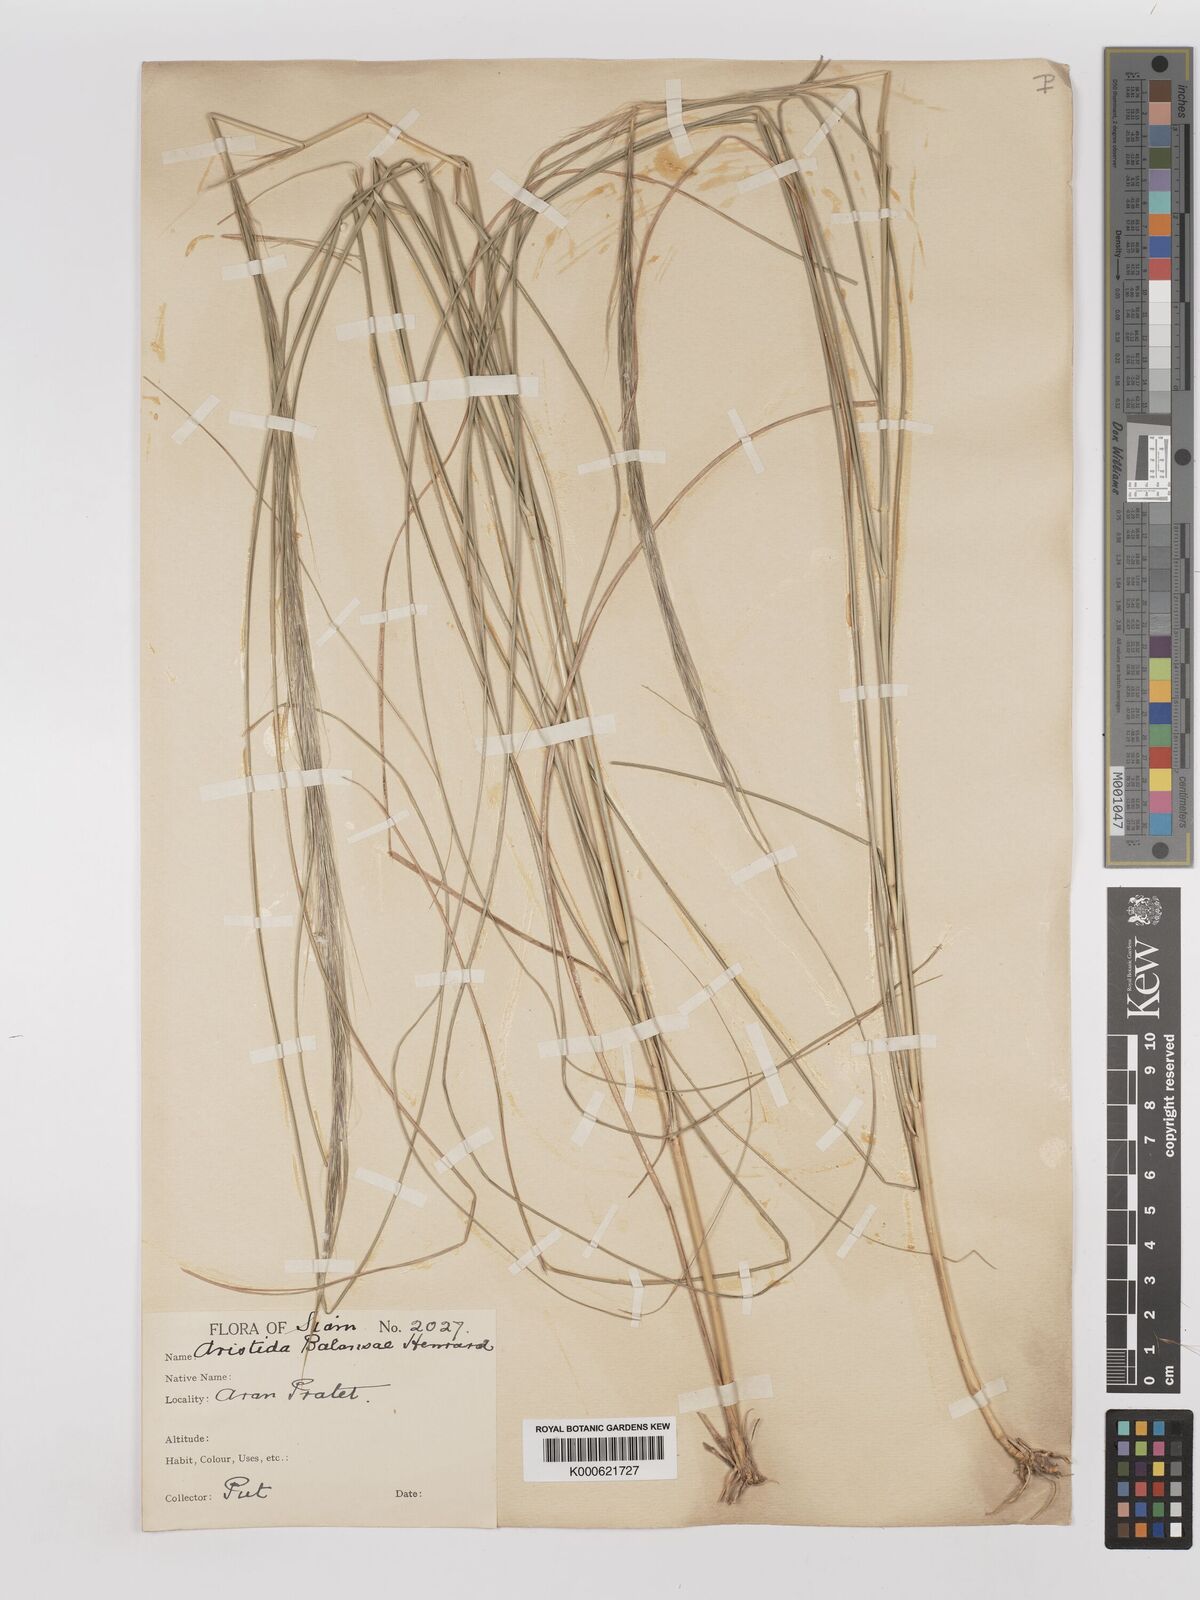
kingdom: Plantae
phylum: Tracheophyta
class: Liliopsida
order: Poales
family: Poaceae
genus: Aristida
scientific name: Aristida balansae
